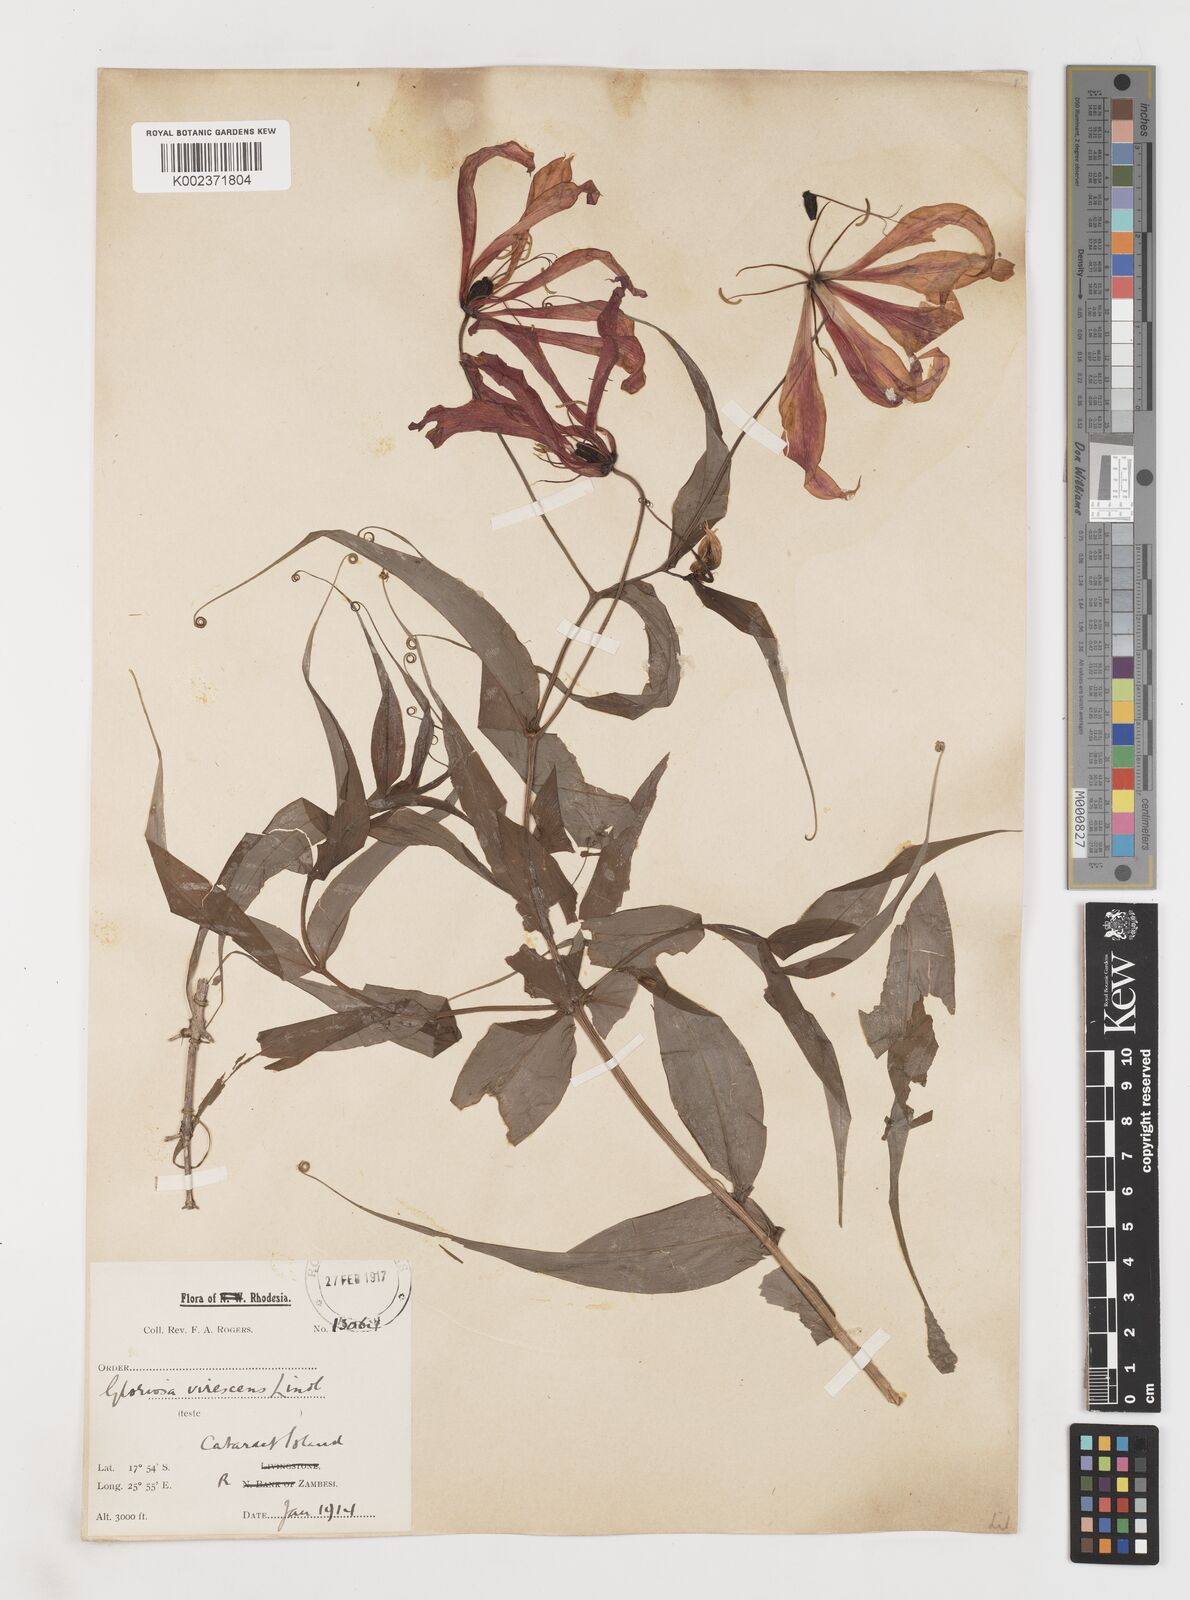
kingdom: Plantae
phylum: Tracheophyta
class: Liliopsida
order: Liliales
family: Colchicaceae
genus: Gloriosa
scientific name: Gloriosa simplex
